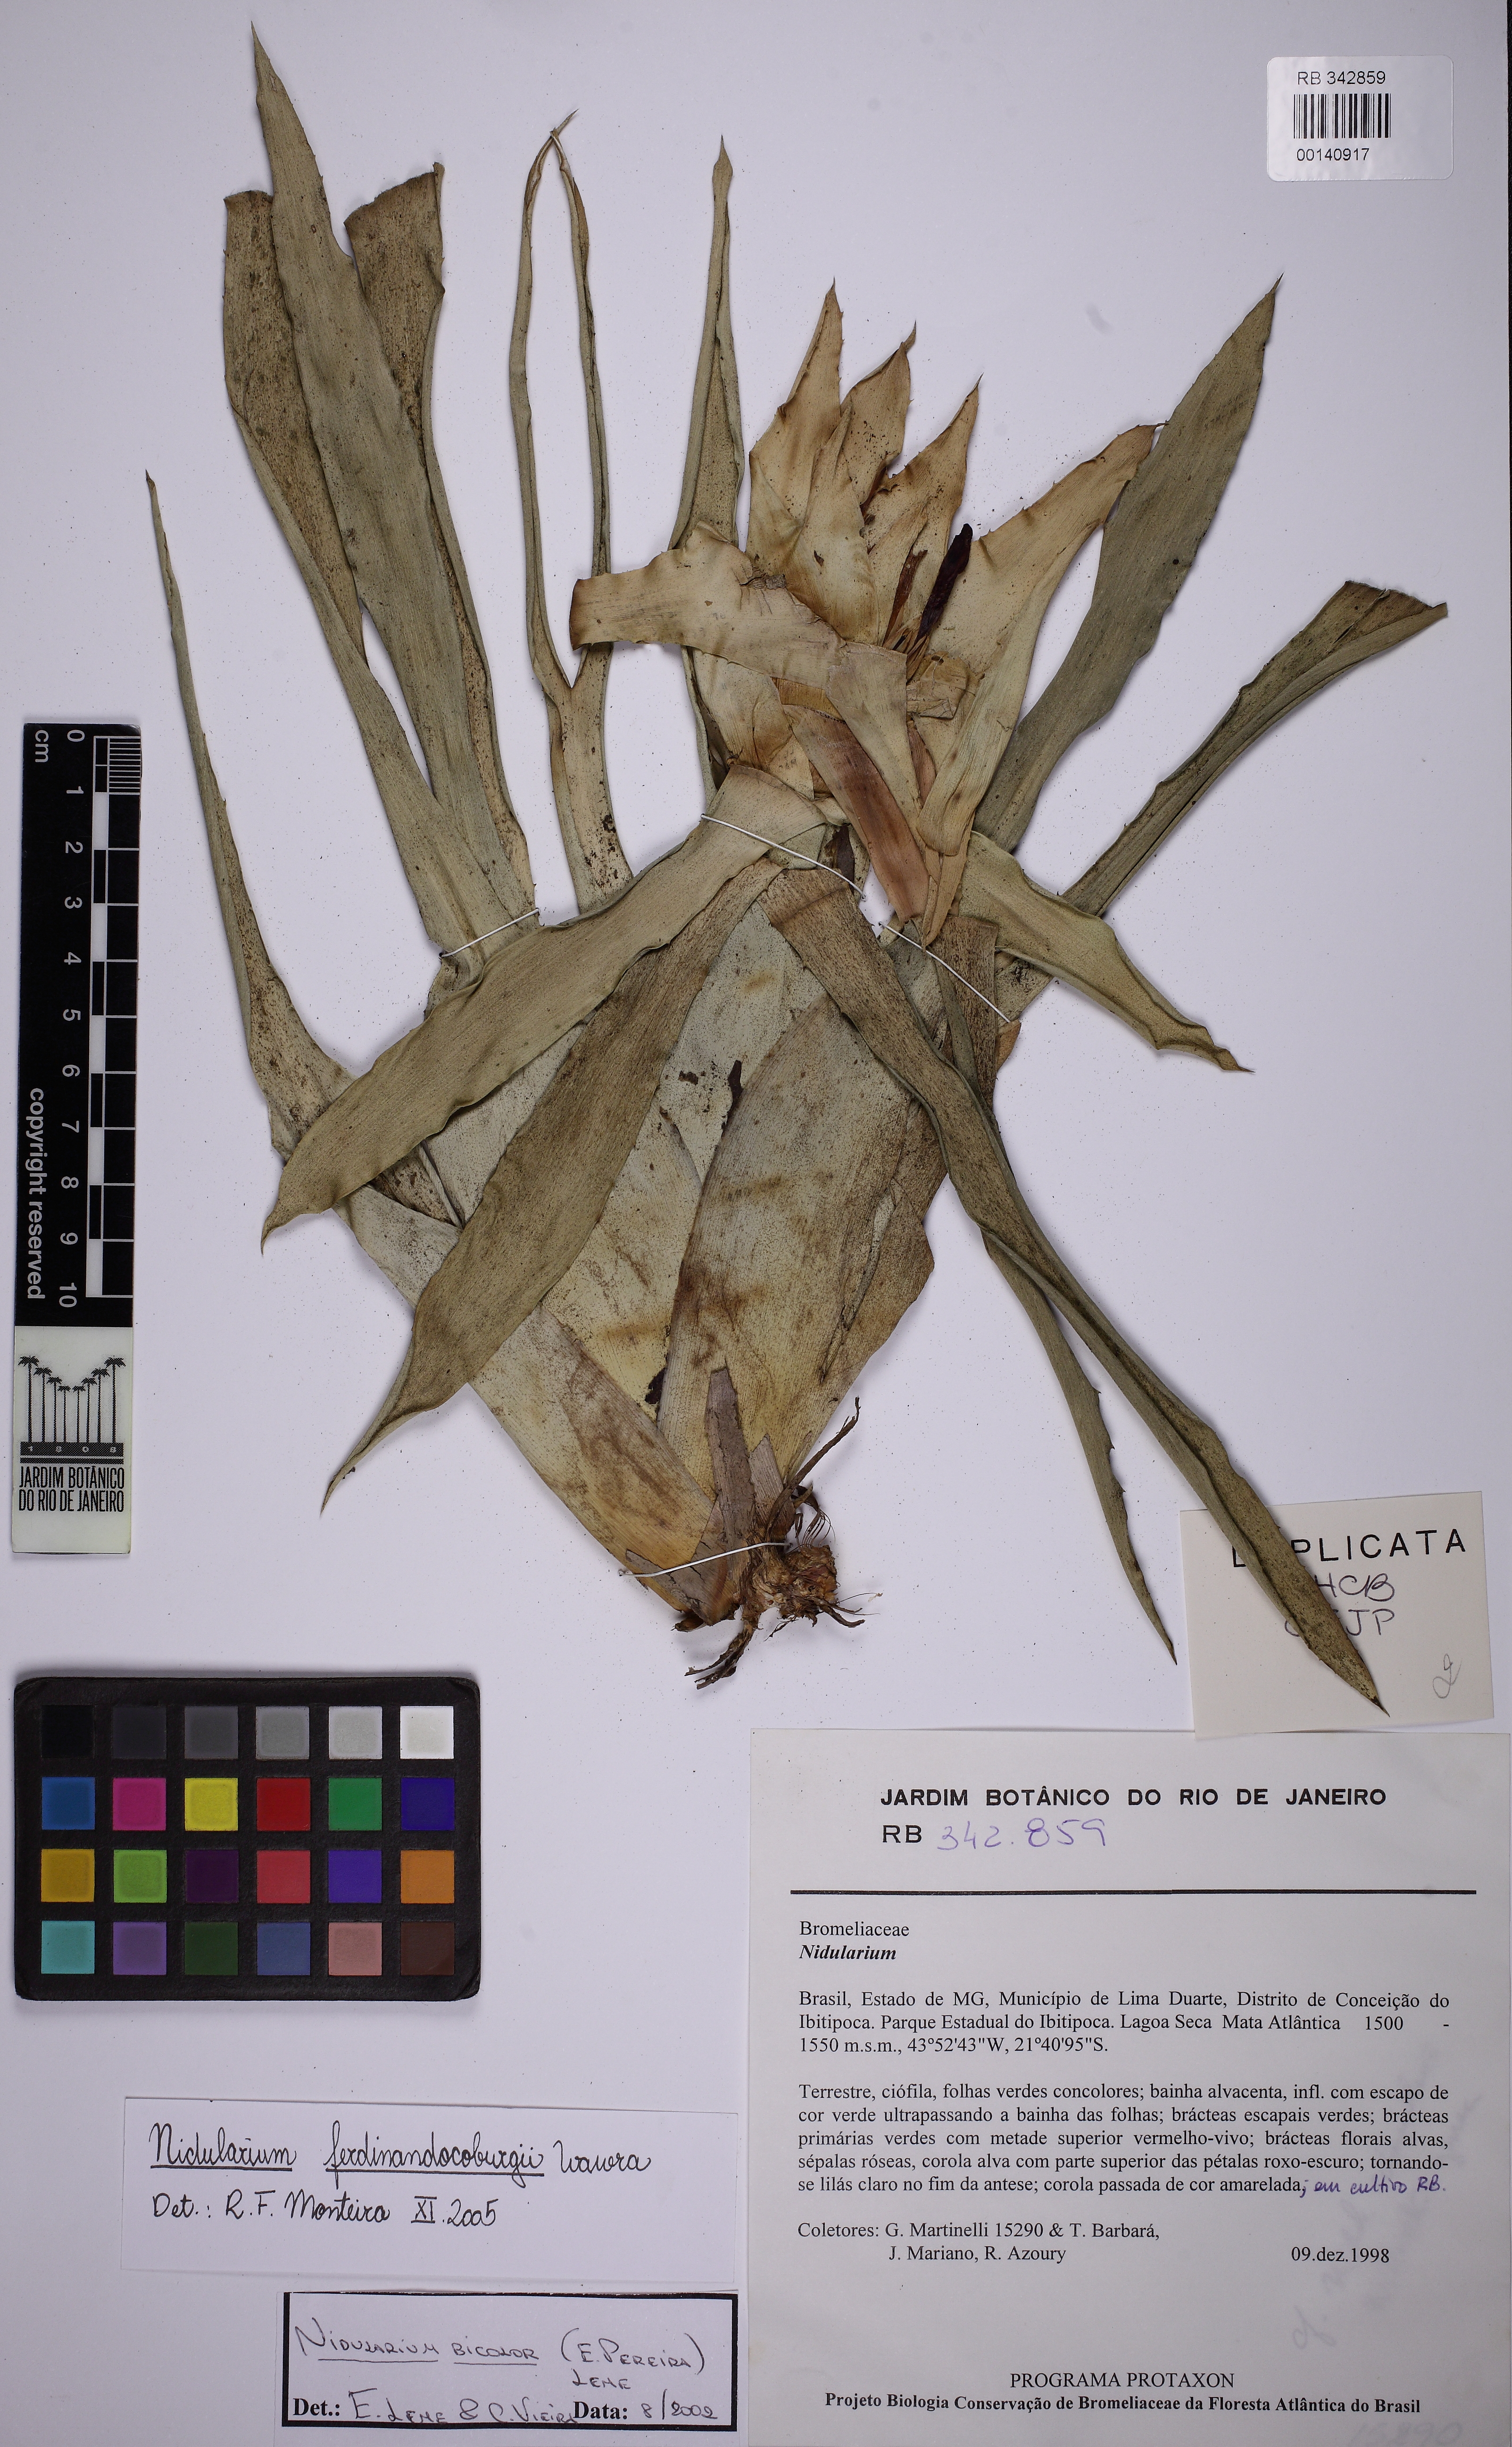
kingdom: Plantae
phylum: Tracheophyta
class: Liliopsida
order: Poales
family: Bromeliaceae
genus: Nidularium
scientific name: Nidularium ferdinando-coburgii
